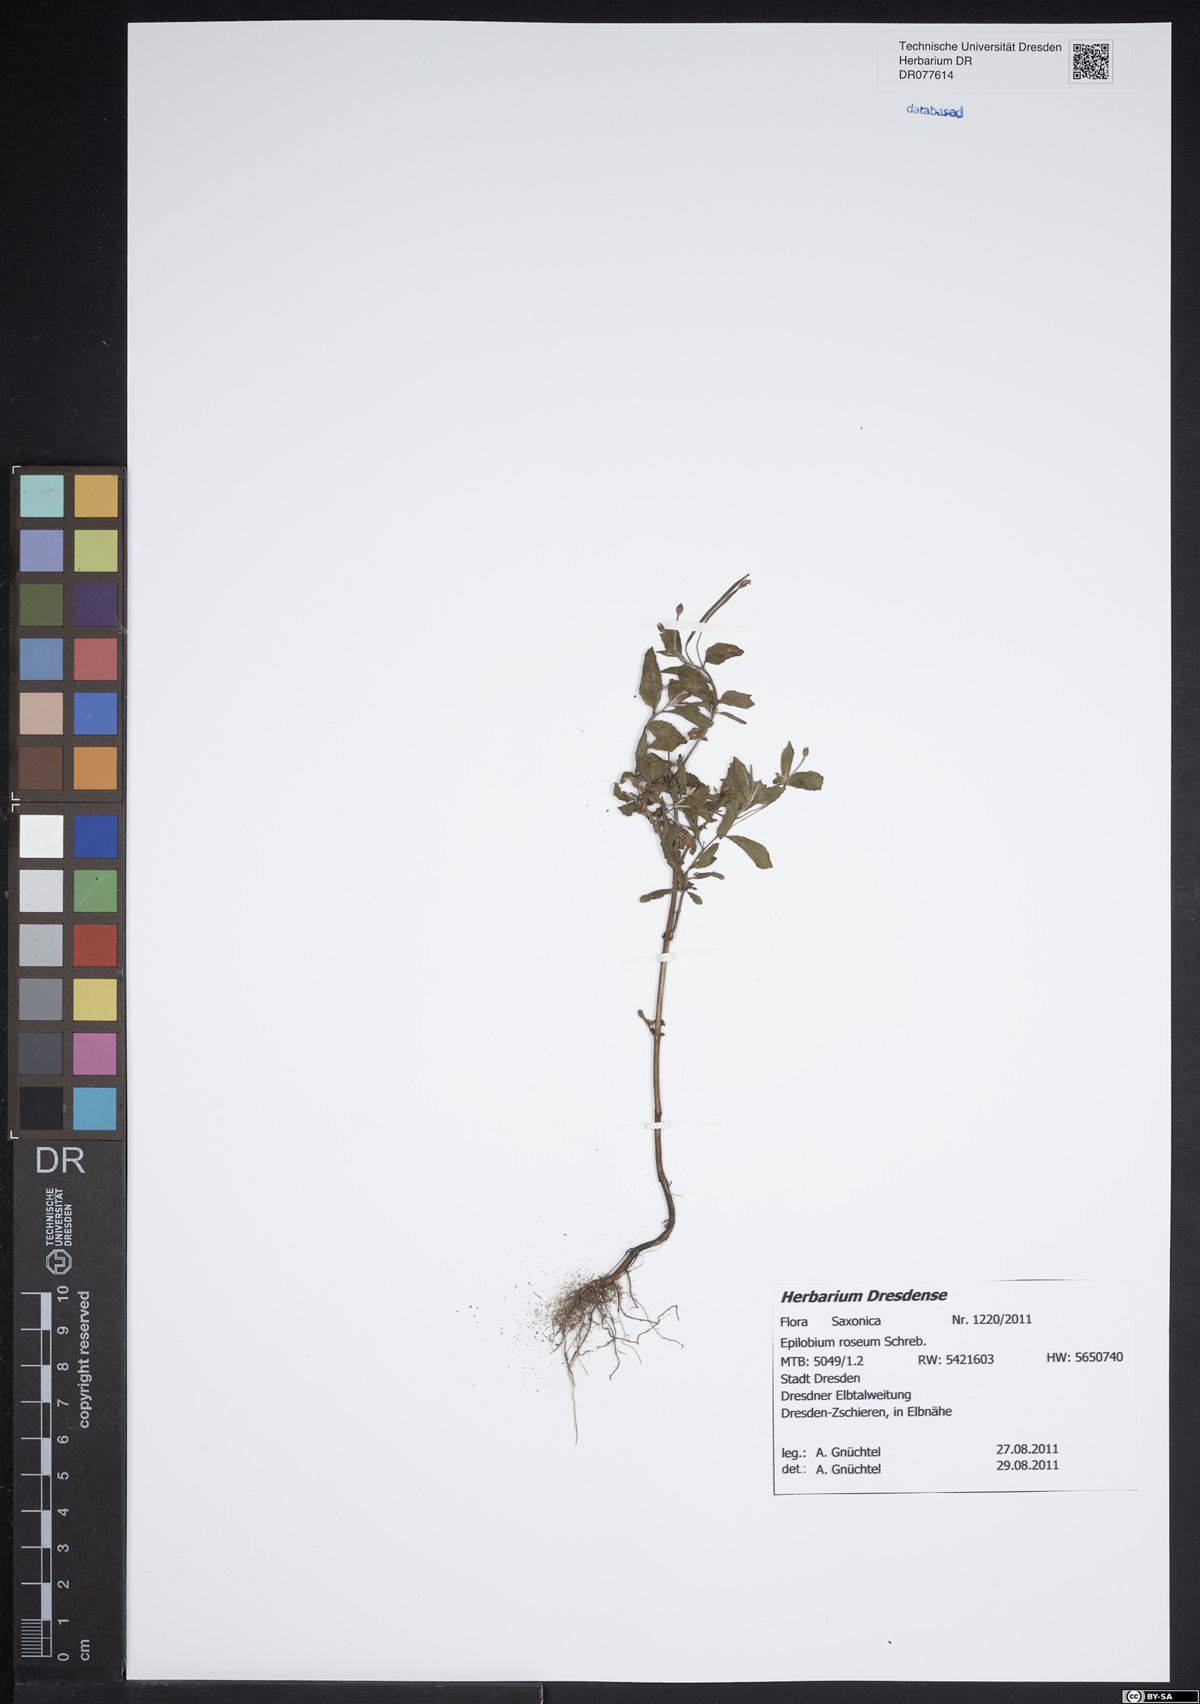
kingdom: Plantae
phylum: Tracheophyta
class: Magnoliopsida
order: Myrtales
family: Onagraceae
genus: Epilobium
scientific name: Epilobium roseum
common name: Pale willowherb
